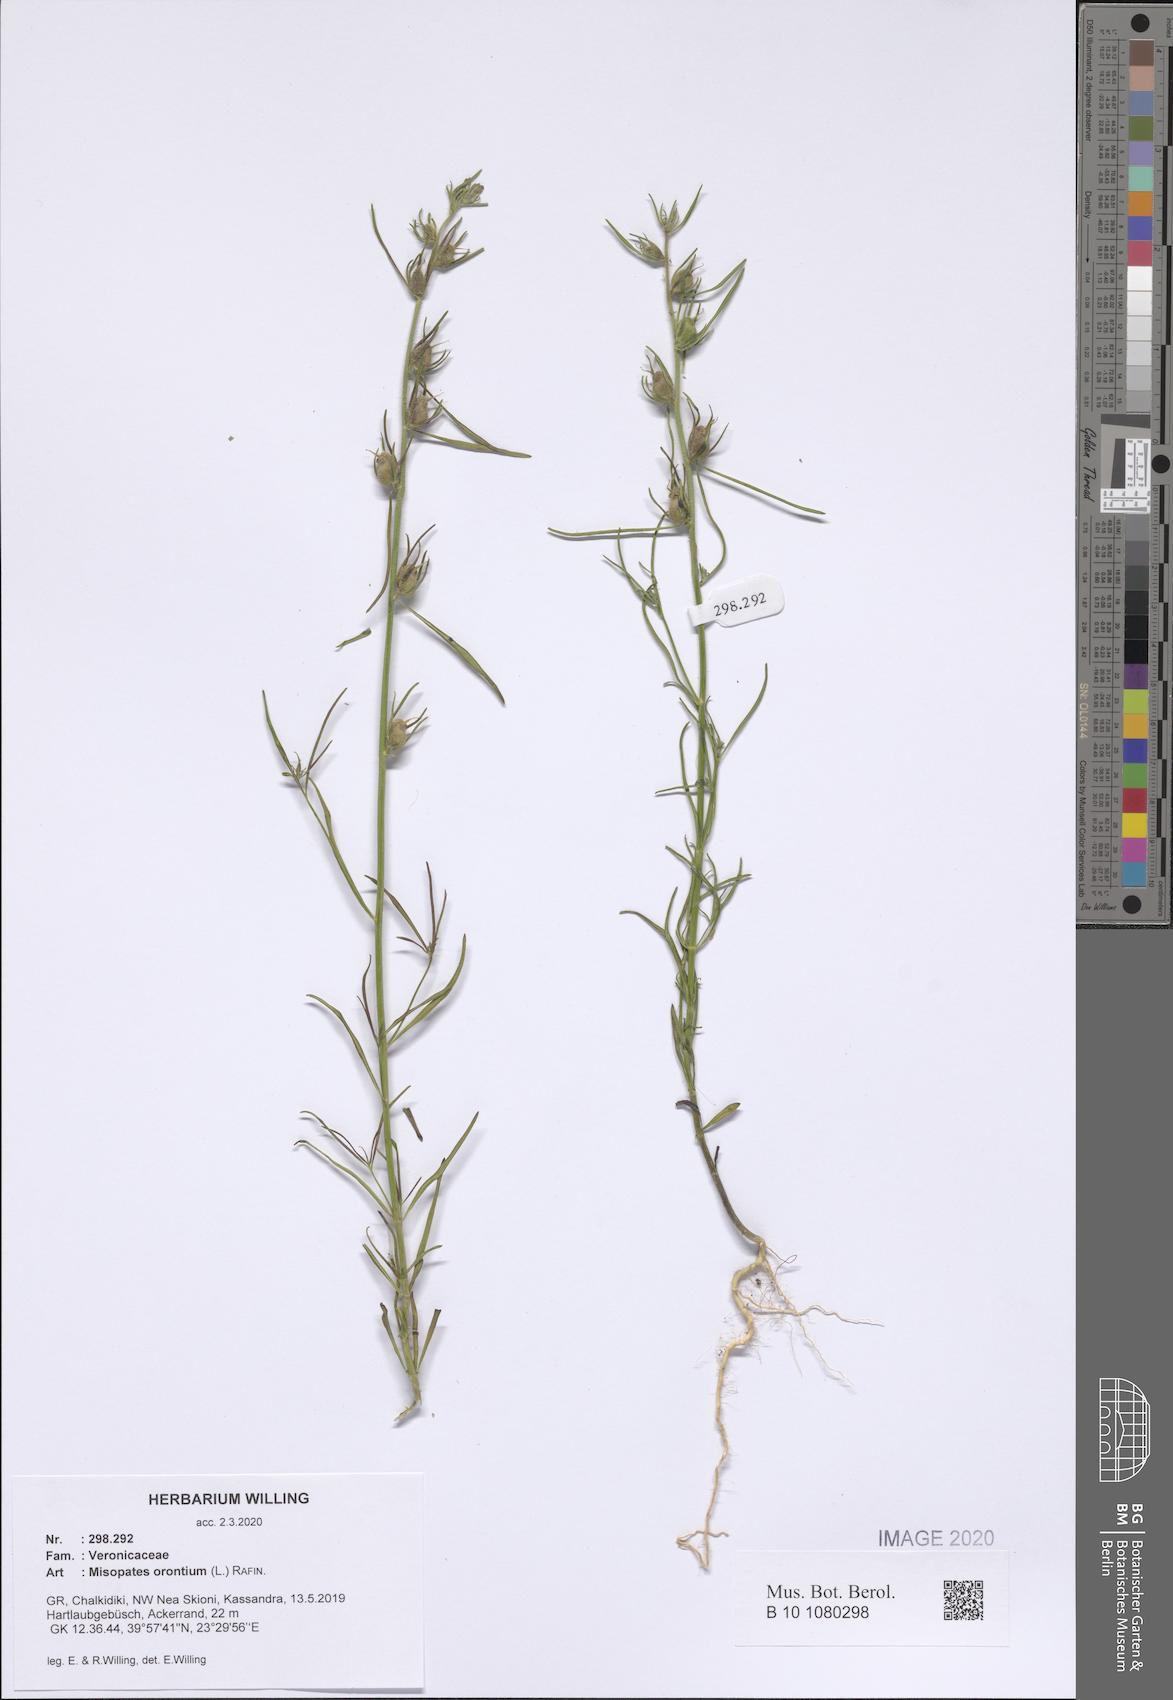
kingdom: Plantae
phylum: Tracheophyta
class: Magnoliopsida
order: Lamiales
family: Plantaginaceae
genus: Misopates
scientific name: Misopates orontium
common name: Weasel's-snout
